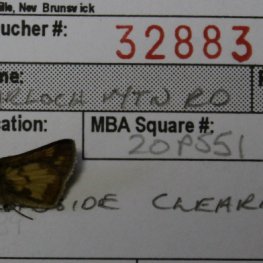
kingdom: Animalia
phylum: Arthropoda
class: Insecta
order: Lepidoptera
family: Hesperiidae
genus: Polites
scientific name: Polites coras
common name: Peck's Skipper
